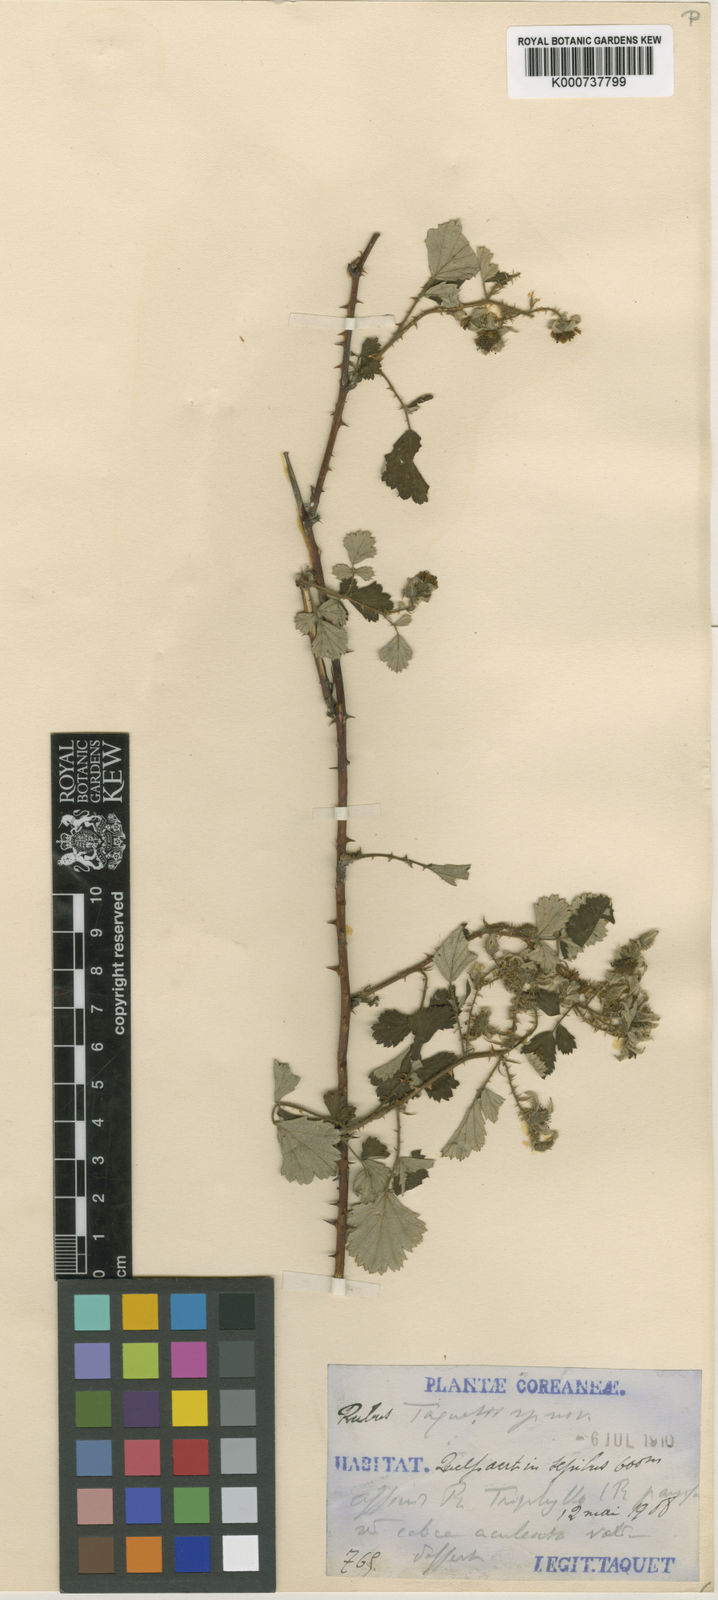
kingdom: Plantae
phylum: Tracheophyta
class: Magnoliopsida
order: Rosales
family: Rosaceae
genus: Rubus
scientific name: Rubus parvifolius
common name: Threeleaf blackberry
